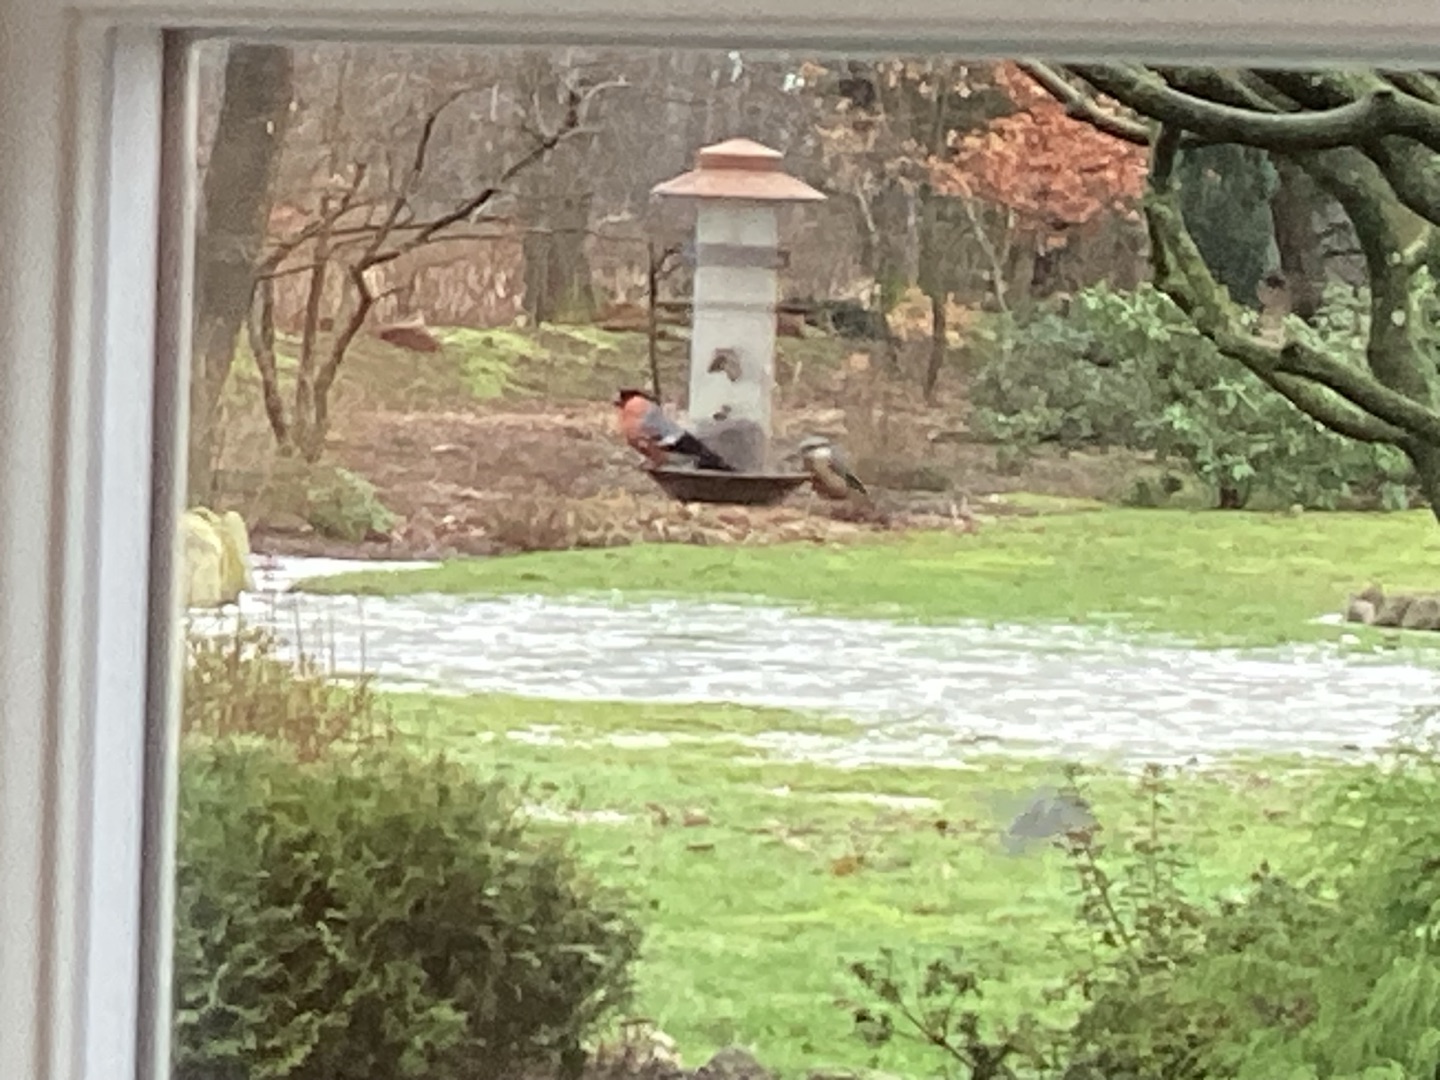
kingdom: Animalia
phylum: Chordata
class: Aves
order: Passeriformes
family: Fringillidae
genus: Pyrrhula
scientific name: Pyrrhula pyrrhula
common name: Dompap
